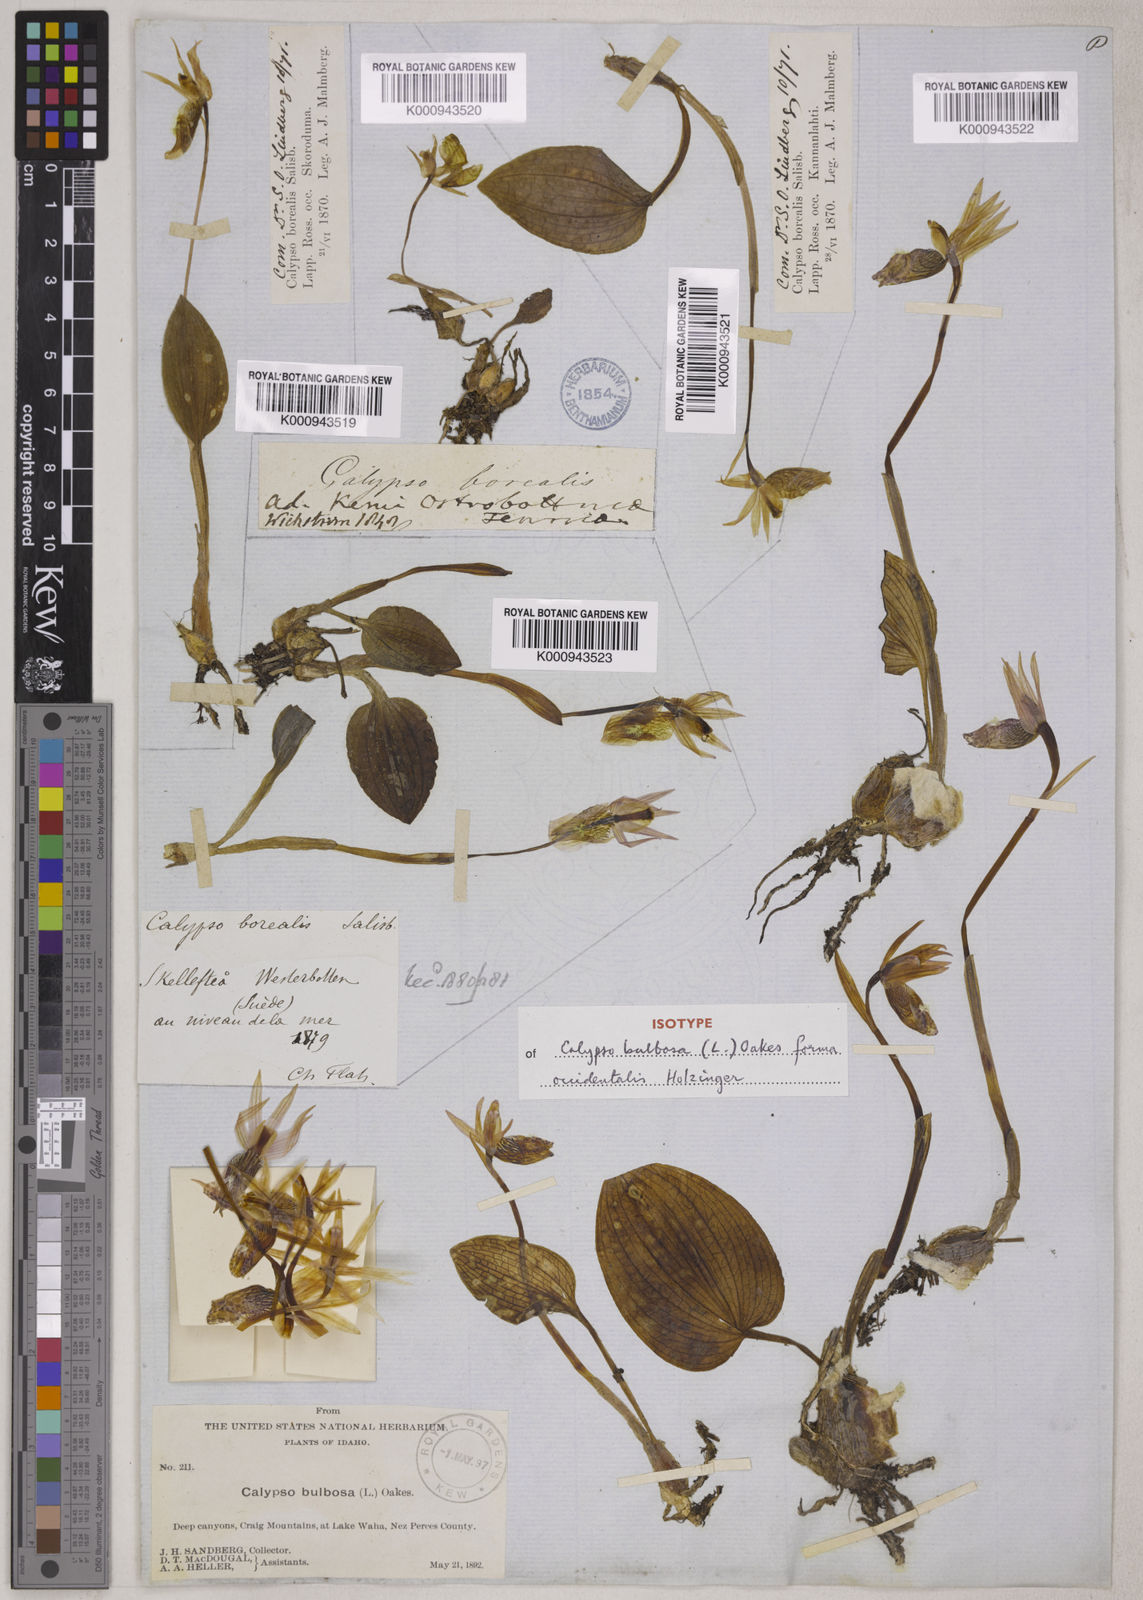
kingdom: Plantae
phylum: Tracheophyta
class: Liliopsida
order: Asparagales
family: Orchidaceae
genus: Calypso
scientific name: Calypso bulbosa
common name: Calypso
